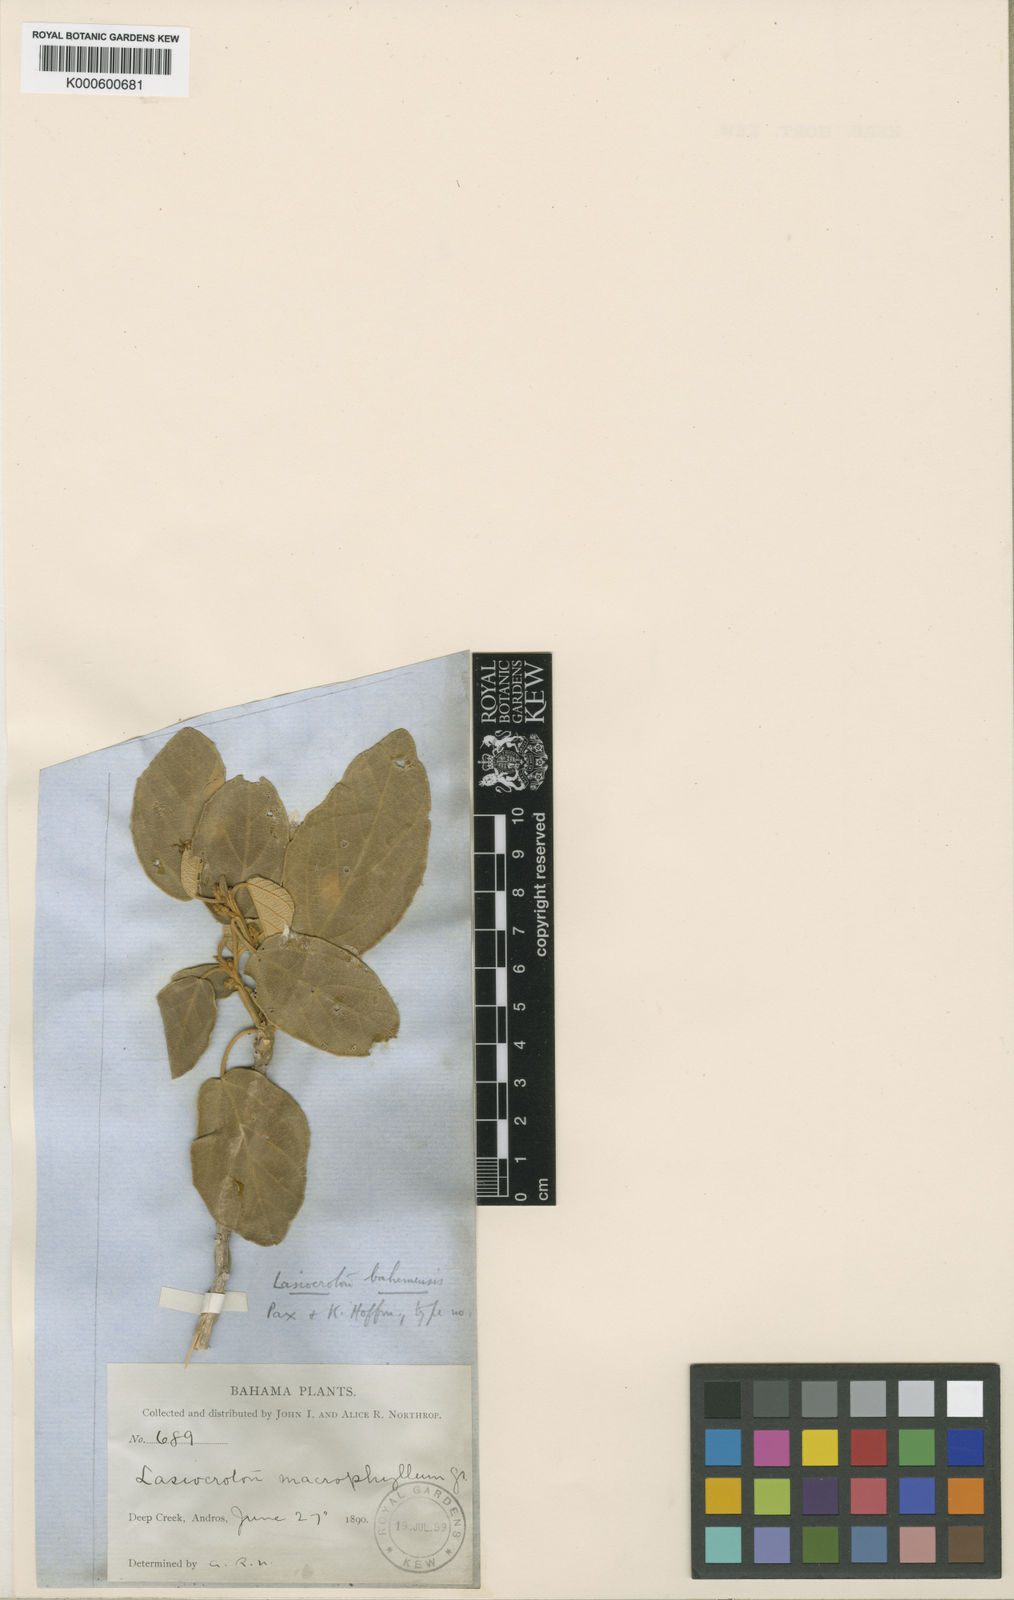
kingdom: Plantae
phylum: Tracheophyta
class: Magnoliopsida
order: Malpighiales
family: Euphorbiaceae
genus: Lasiocroton
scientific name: Lasiocroton bahamensis
